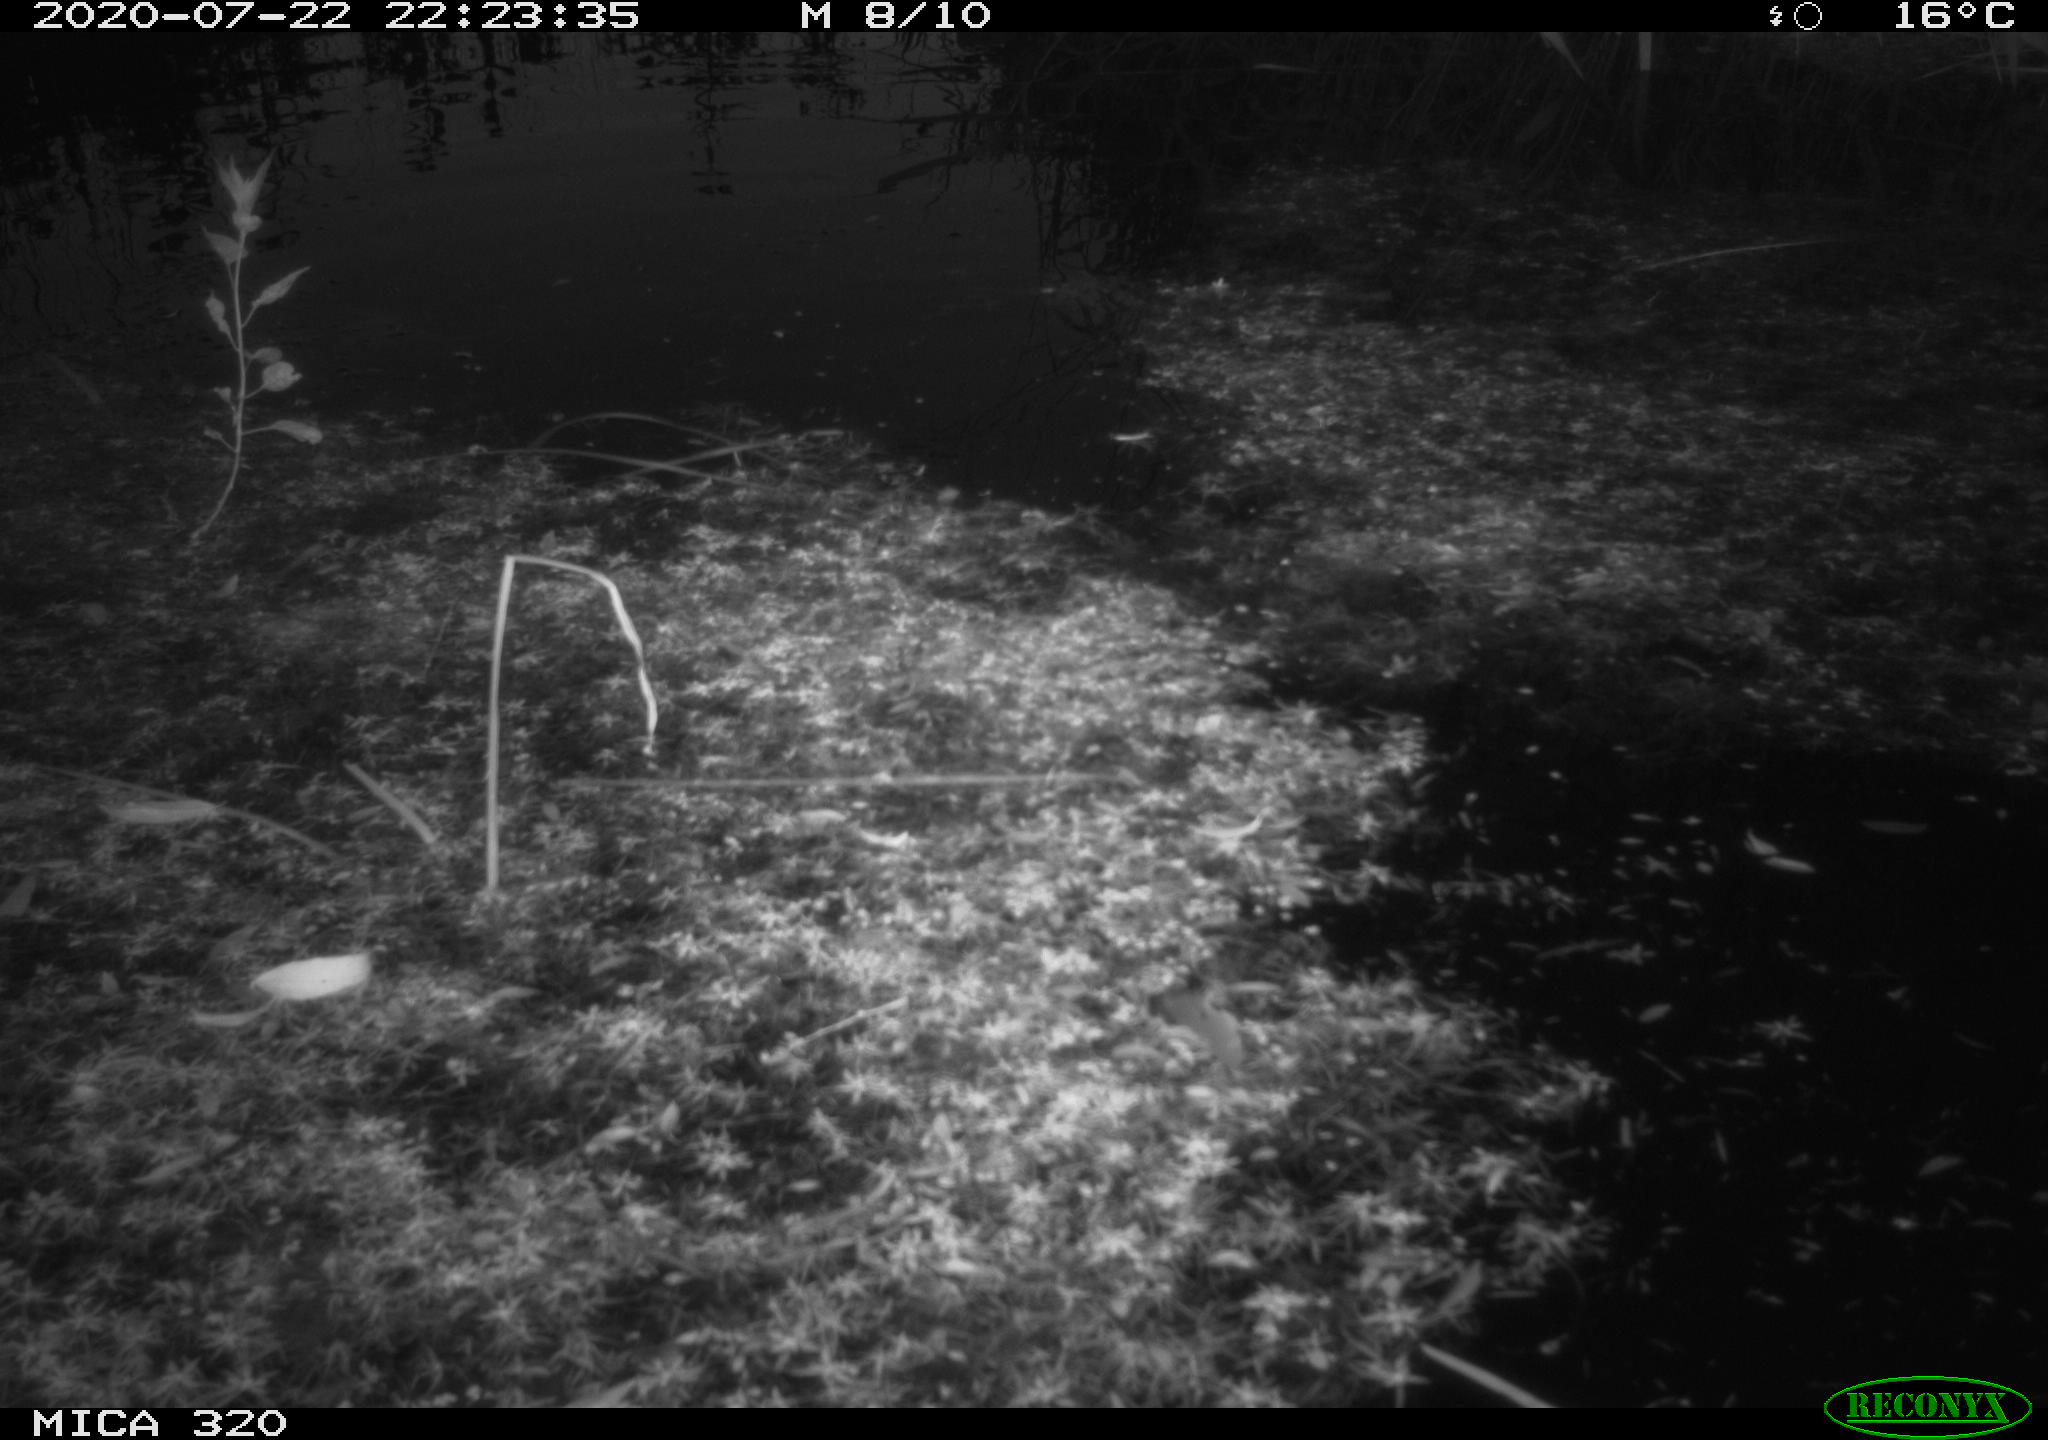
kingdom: Animalia
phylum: Chordata
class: Aves
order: Anseriformes
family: Anatidae
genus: Anas
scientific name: Anas platyrhynchos
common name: Mallard
